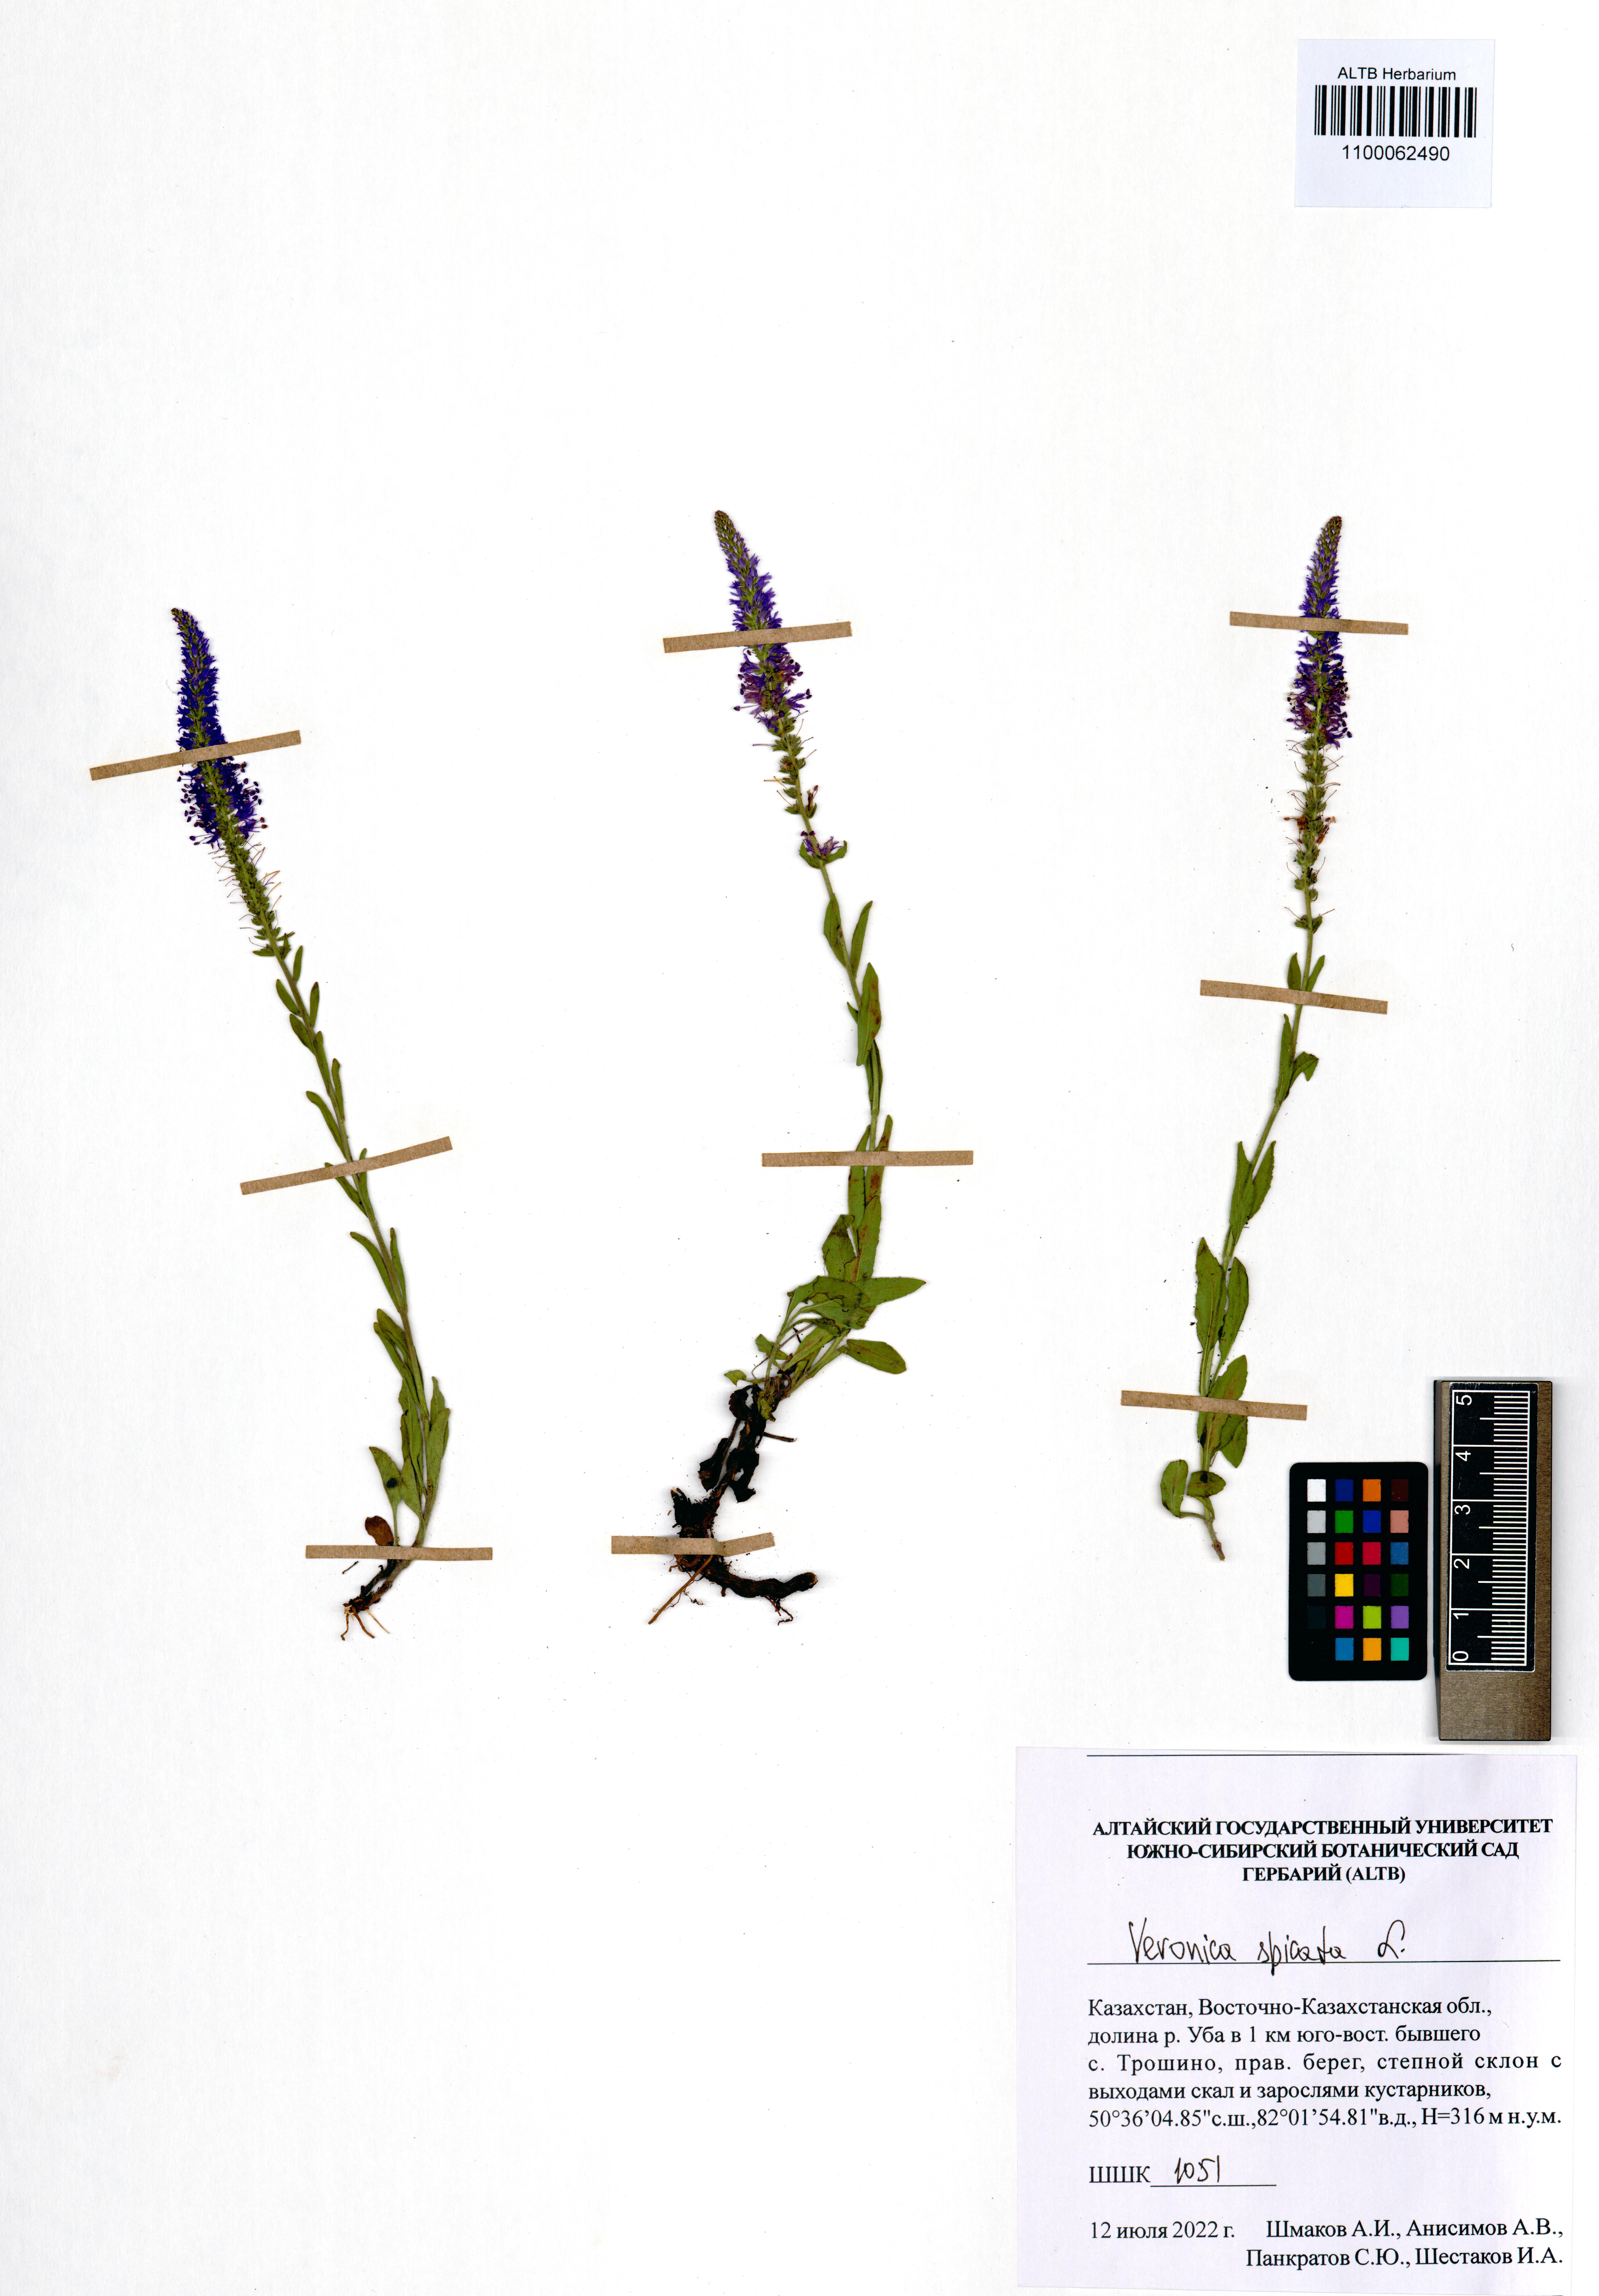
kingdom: Plantae
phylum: Tracheophyta
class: Magnoliopsida
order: Lamiales
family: Plantaginaceae
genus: Veronica
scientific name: Veronica spicata
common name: Spiked speedwell
